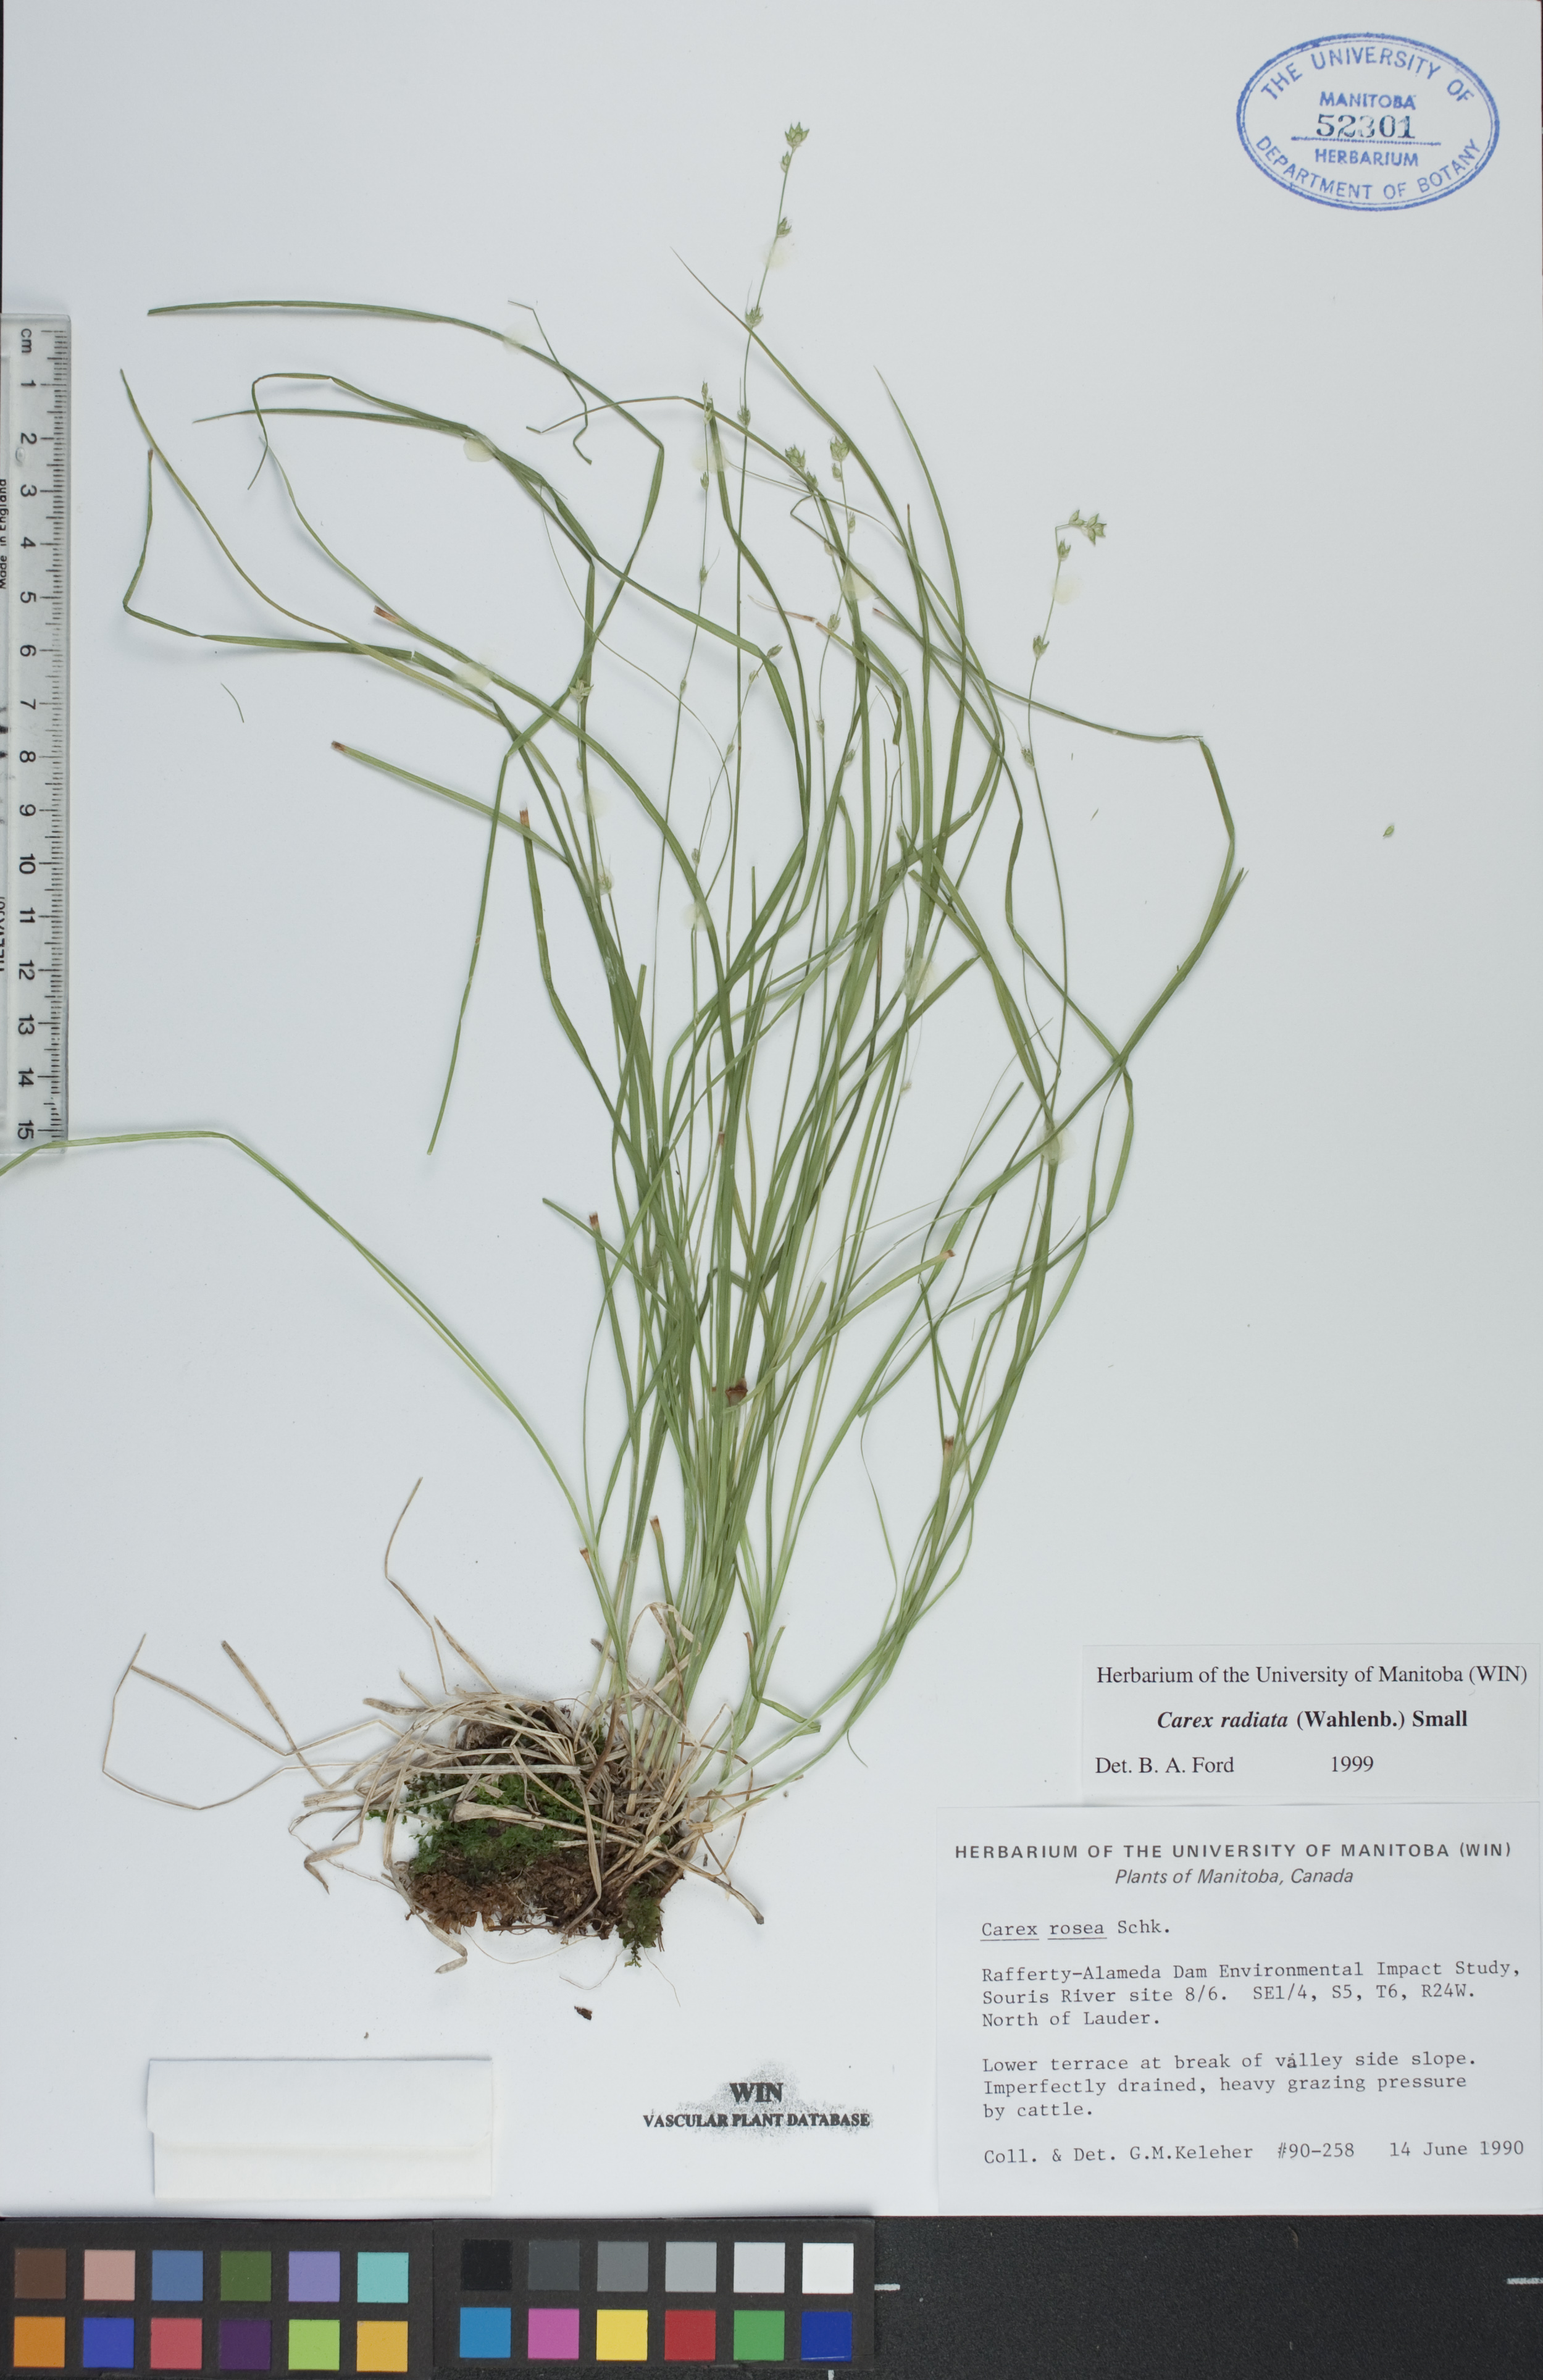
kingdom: Plantae
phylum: Tracheophyta
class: Liliopsida
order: Poales
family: Cyperaceae
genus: Carex
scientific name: Carex radiata
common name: Eastern star sedge
